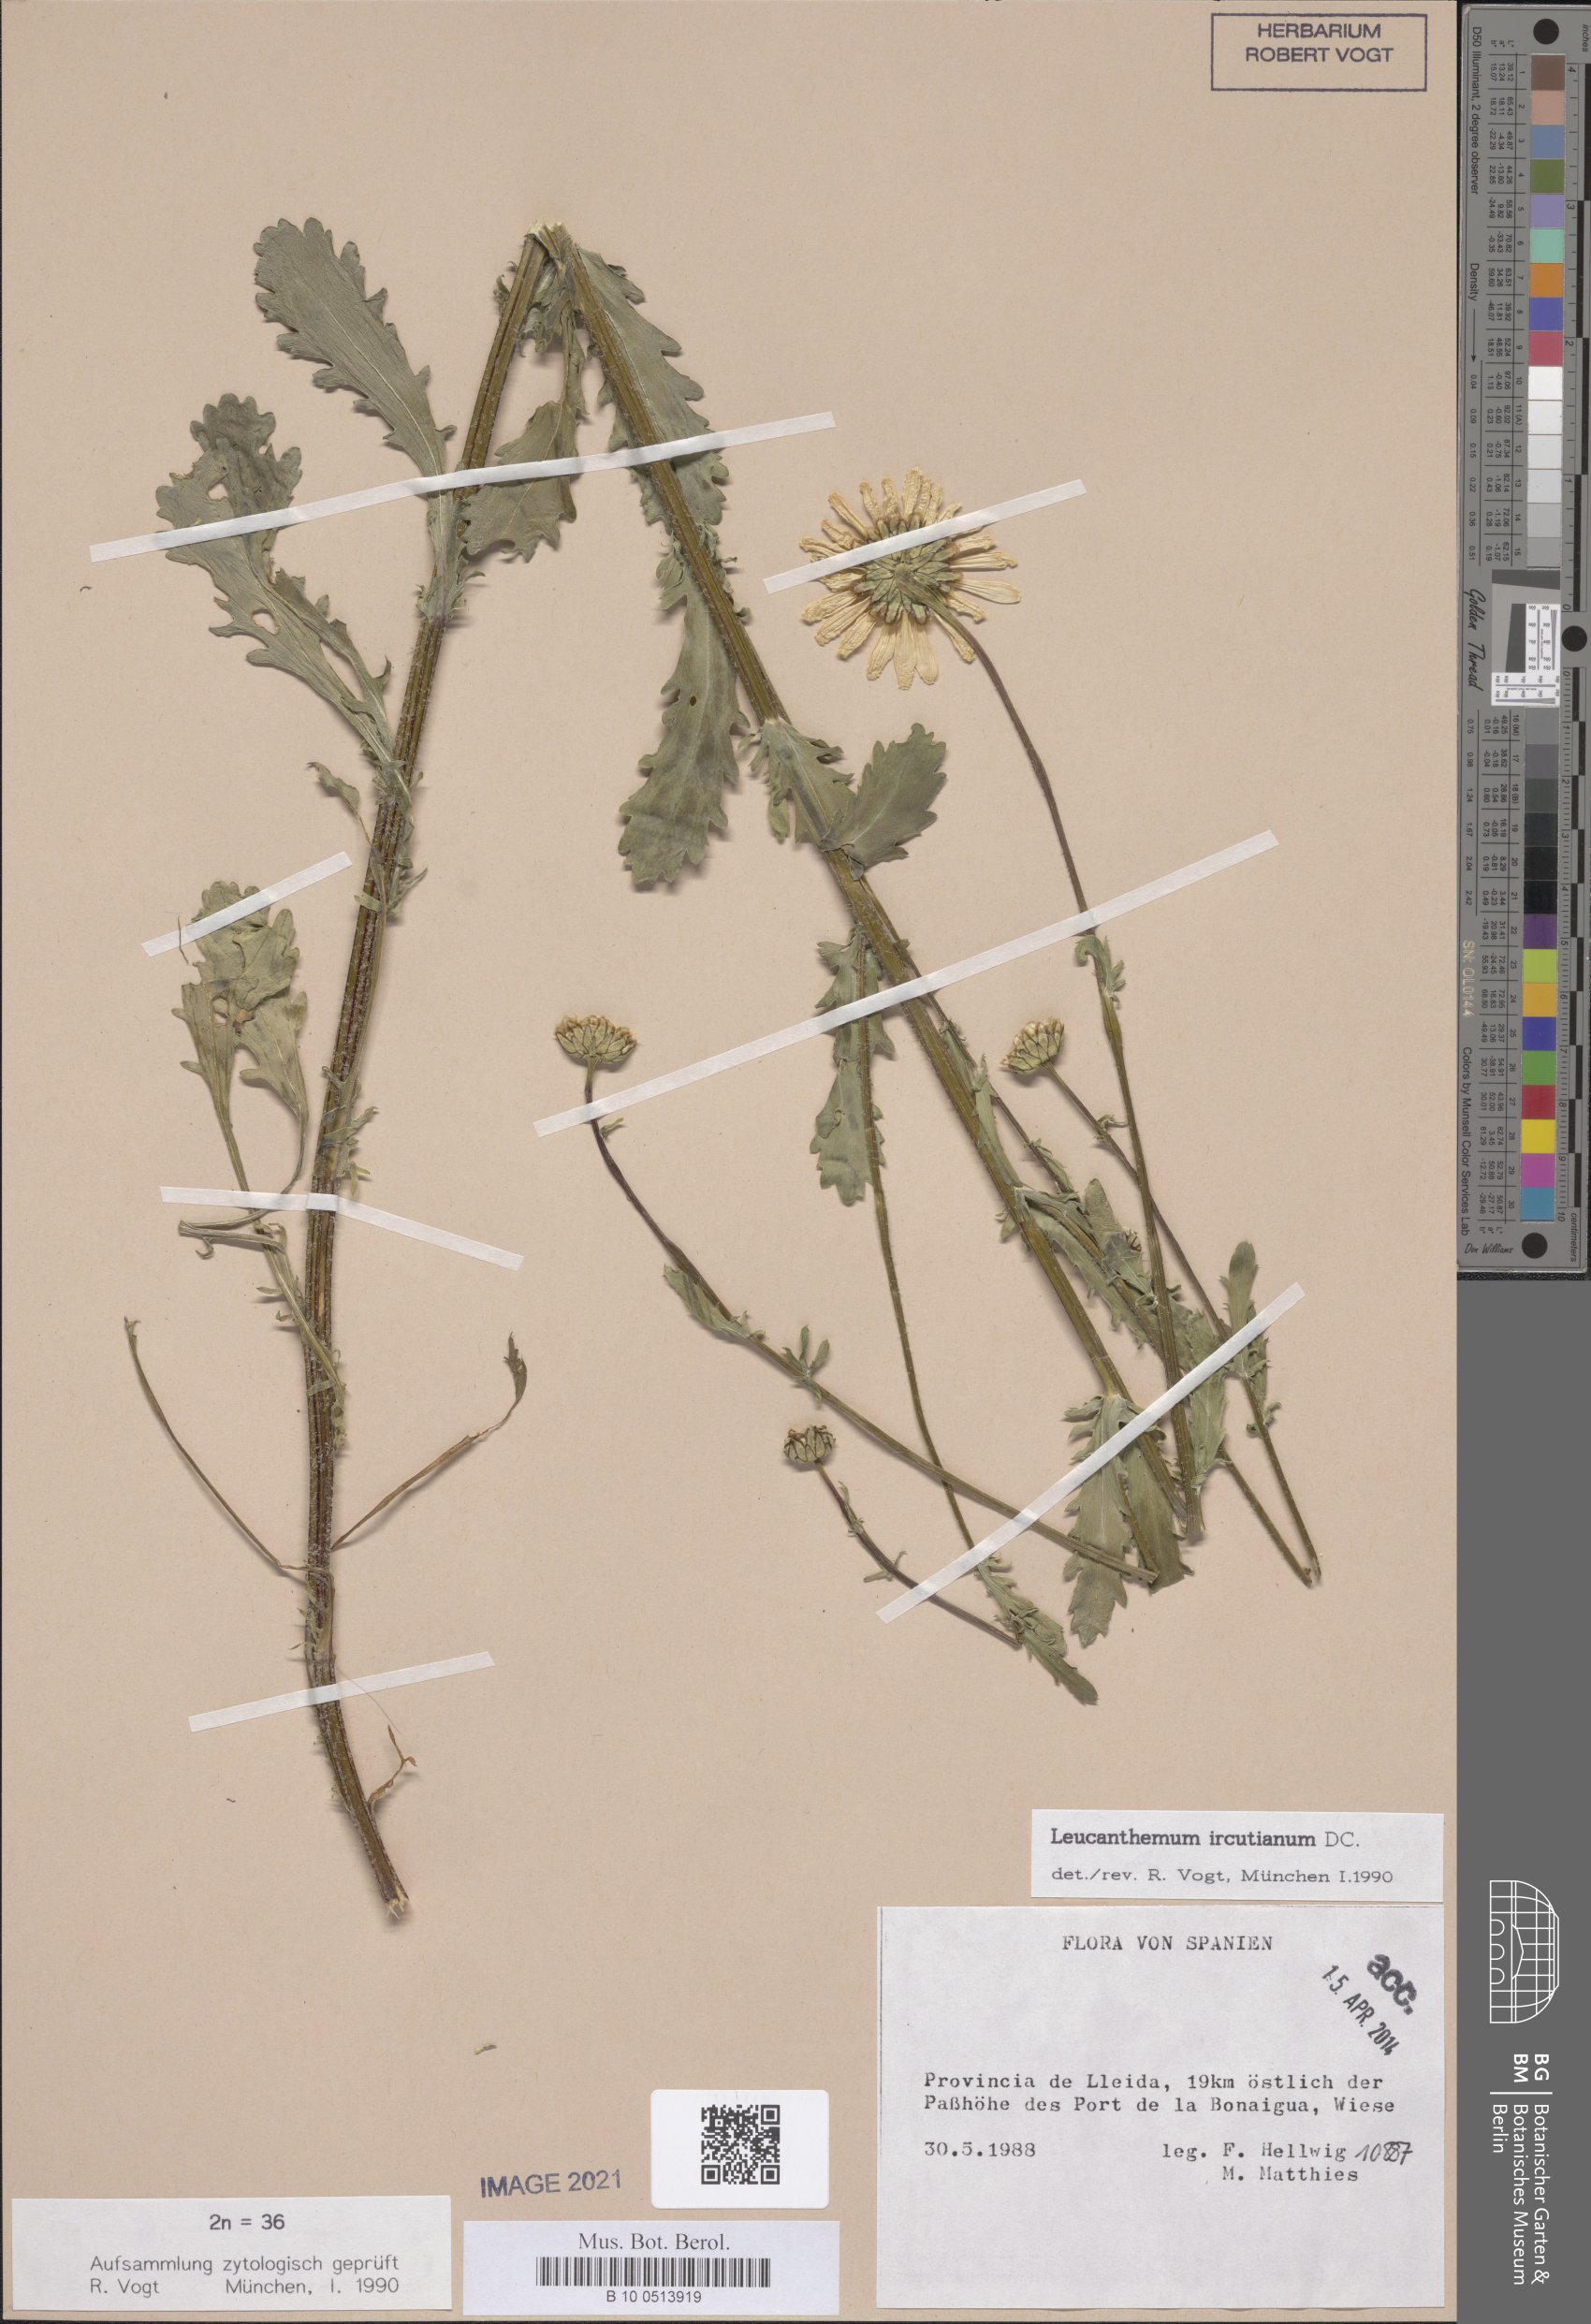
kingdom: Plantae
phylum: Tracheophyta
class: Magnoliopsida
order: Asterales
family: Asteraceae
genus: Leucanthemum
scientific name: Leucanthemum ircutianum
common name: Daisy
